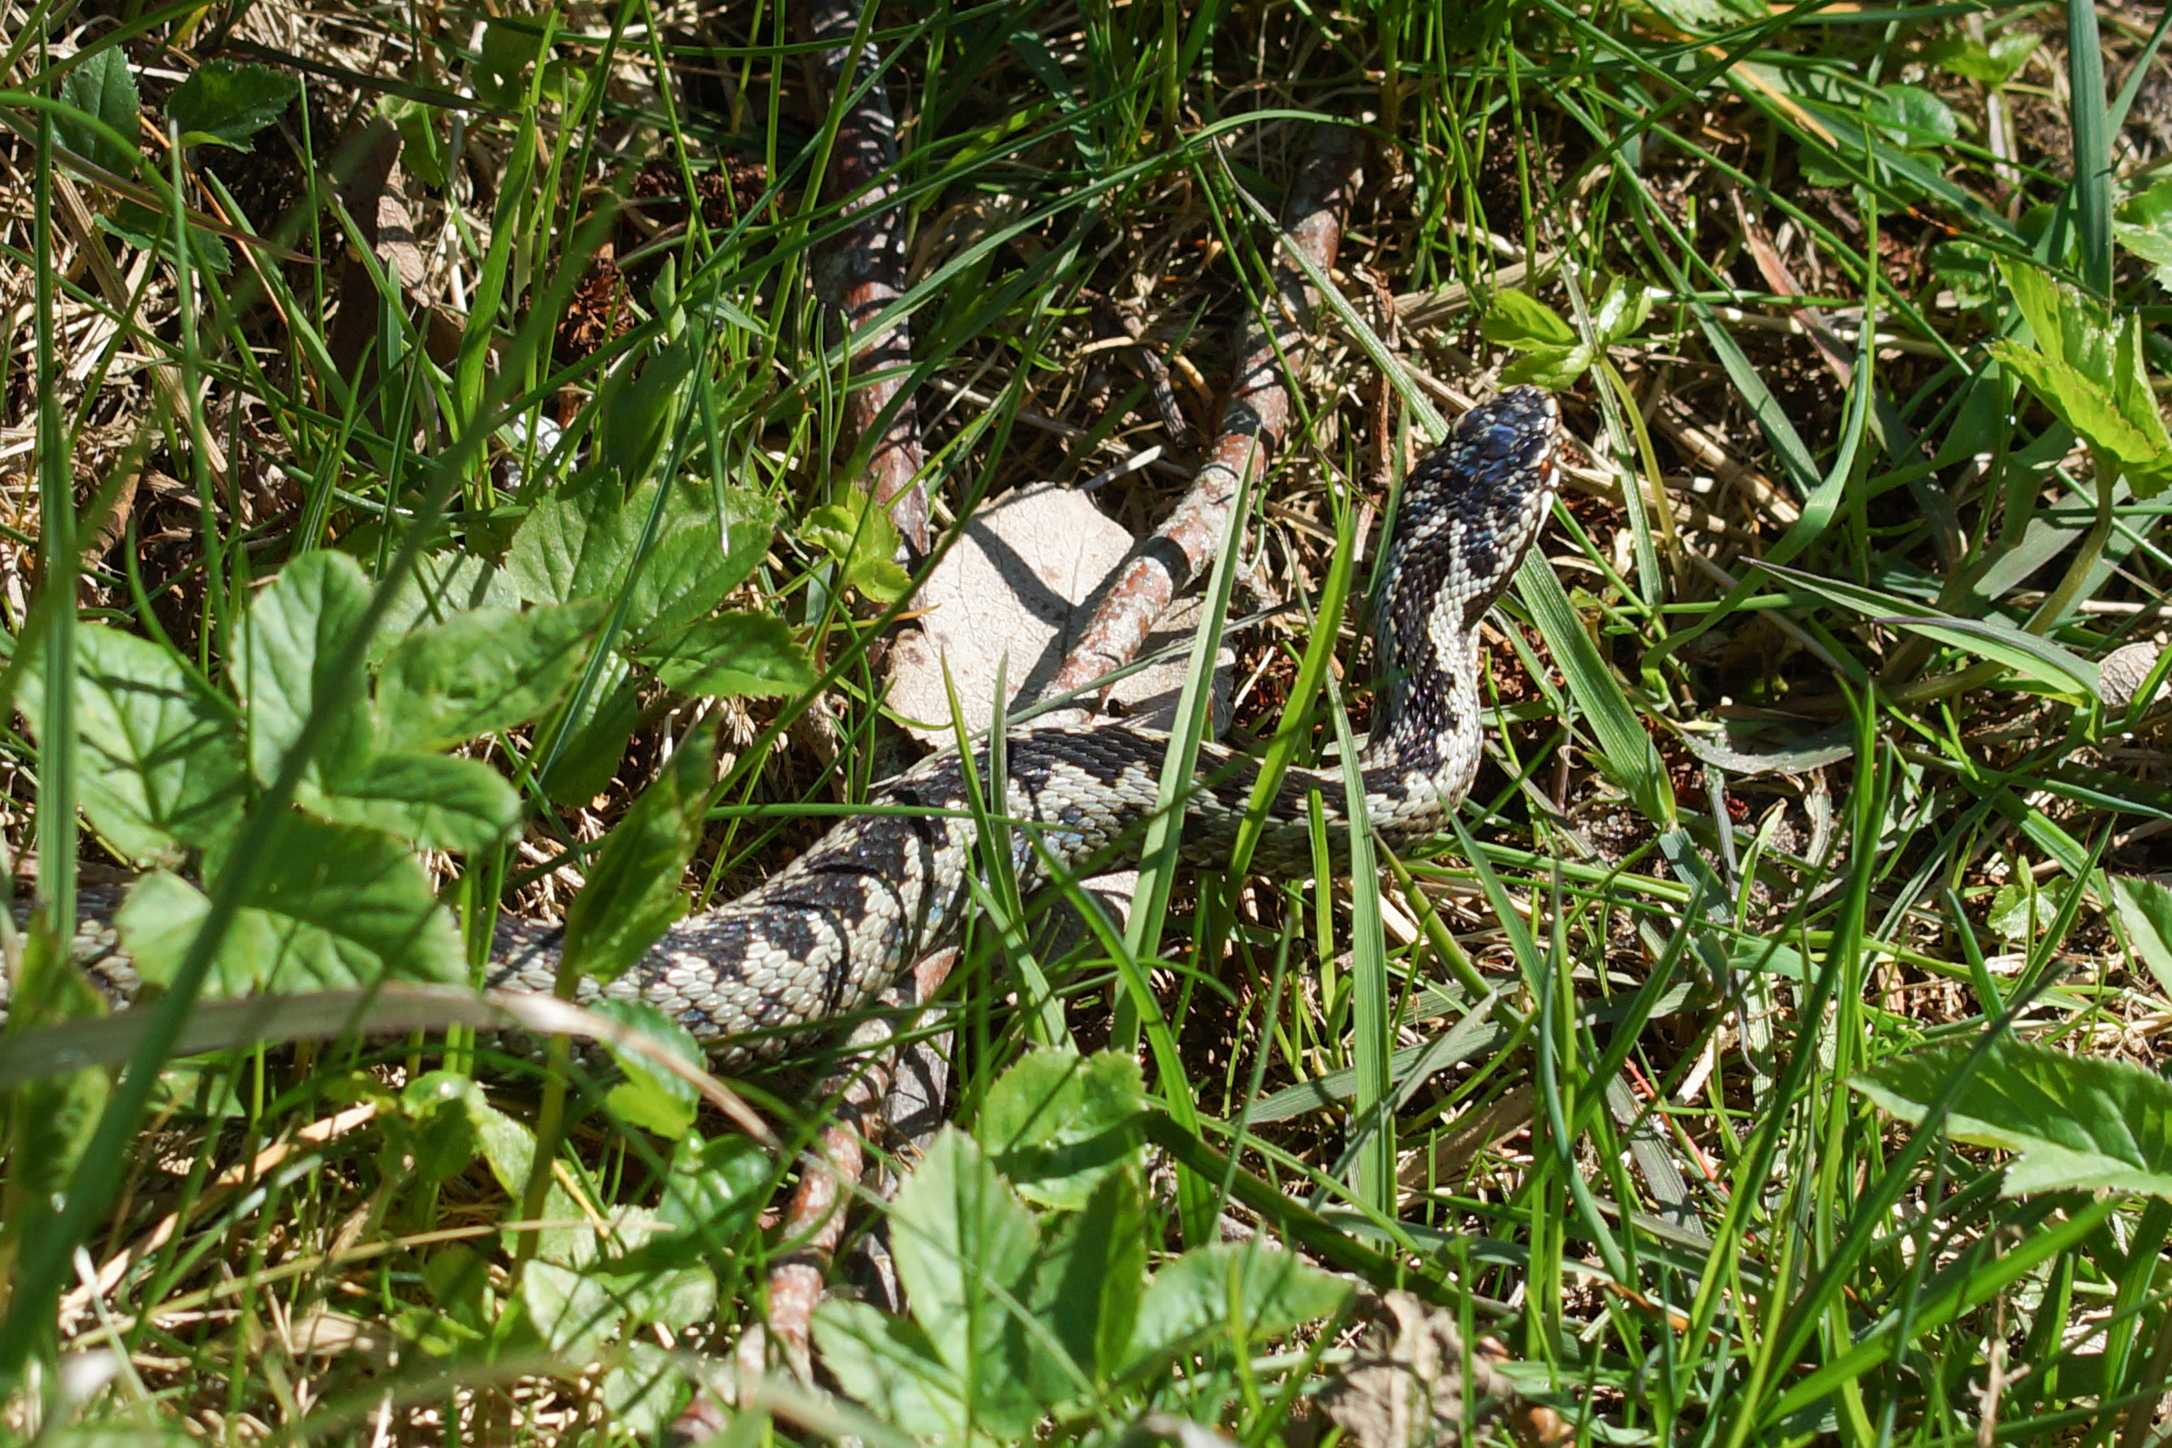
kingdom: Animalia
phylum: Chordata
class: Squamata
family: Viperidae
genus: Vipera
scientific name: Vipera berus
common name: Hugorm
